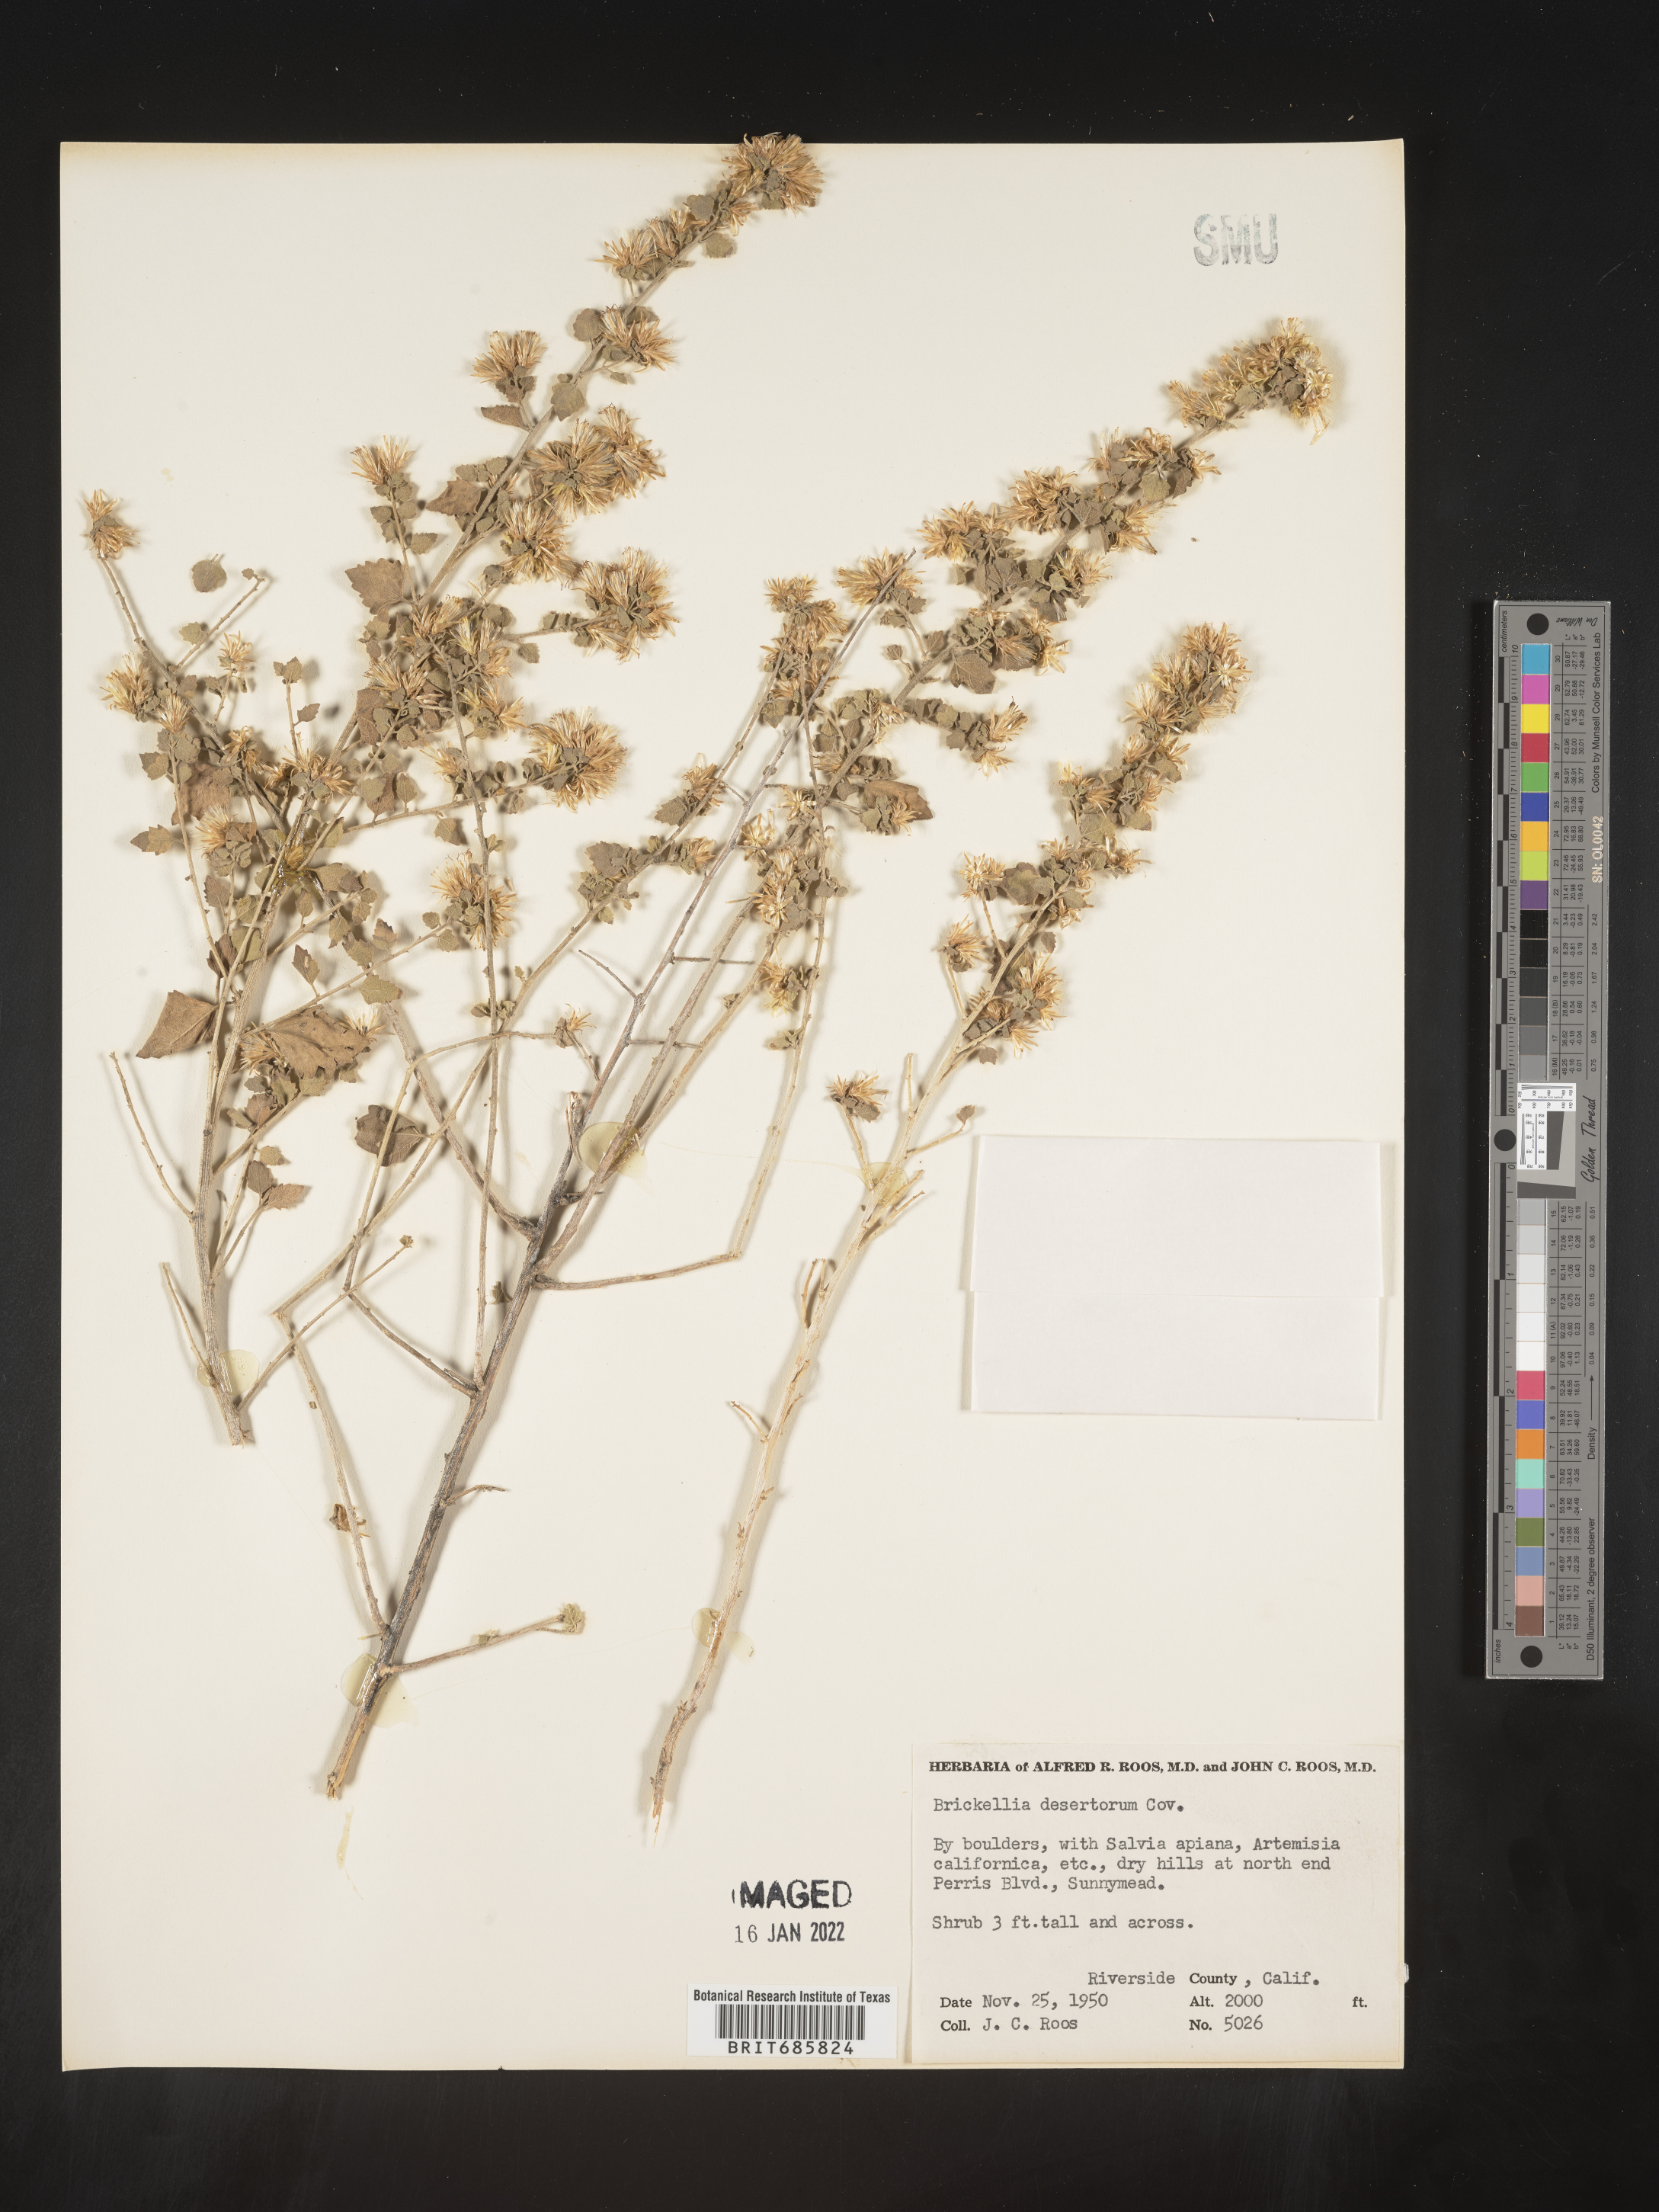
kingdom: Plantae
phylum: Tracheophyta
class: Magnoliopsida
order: Asterales
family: Asteraceae
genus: Brickellia
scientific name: Brickellia desertorum
